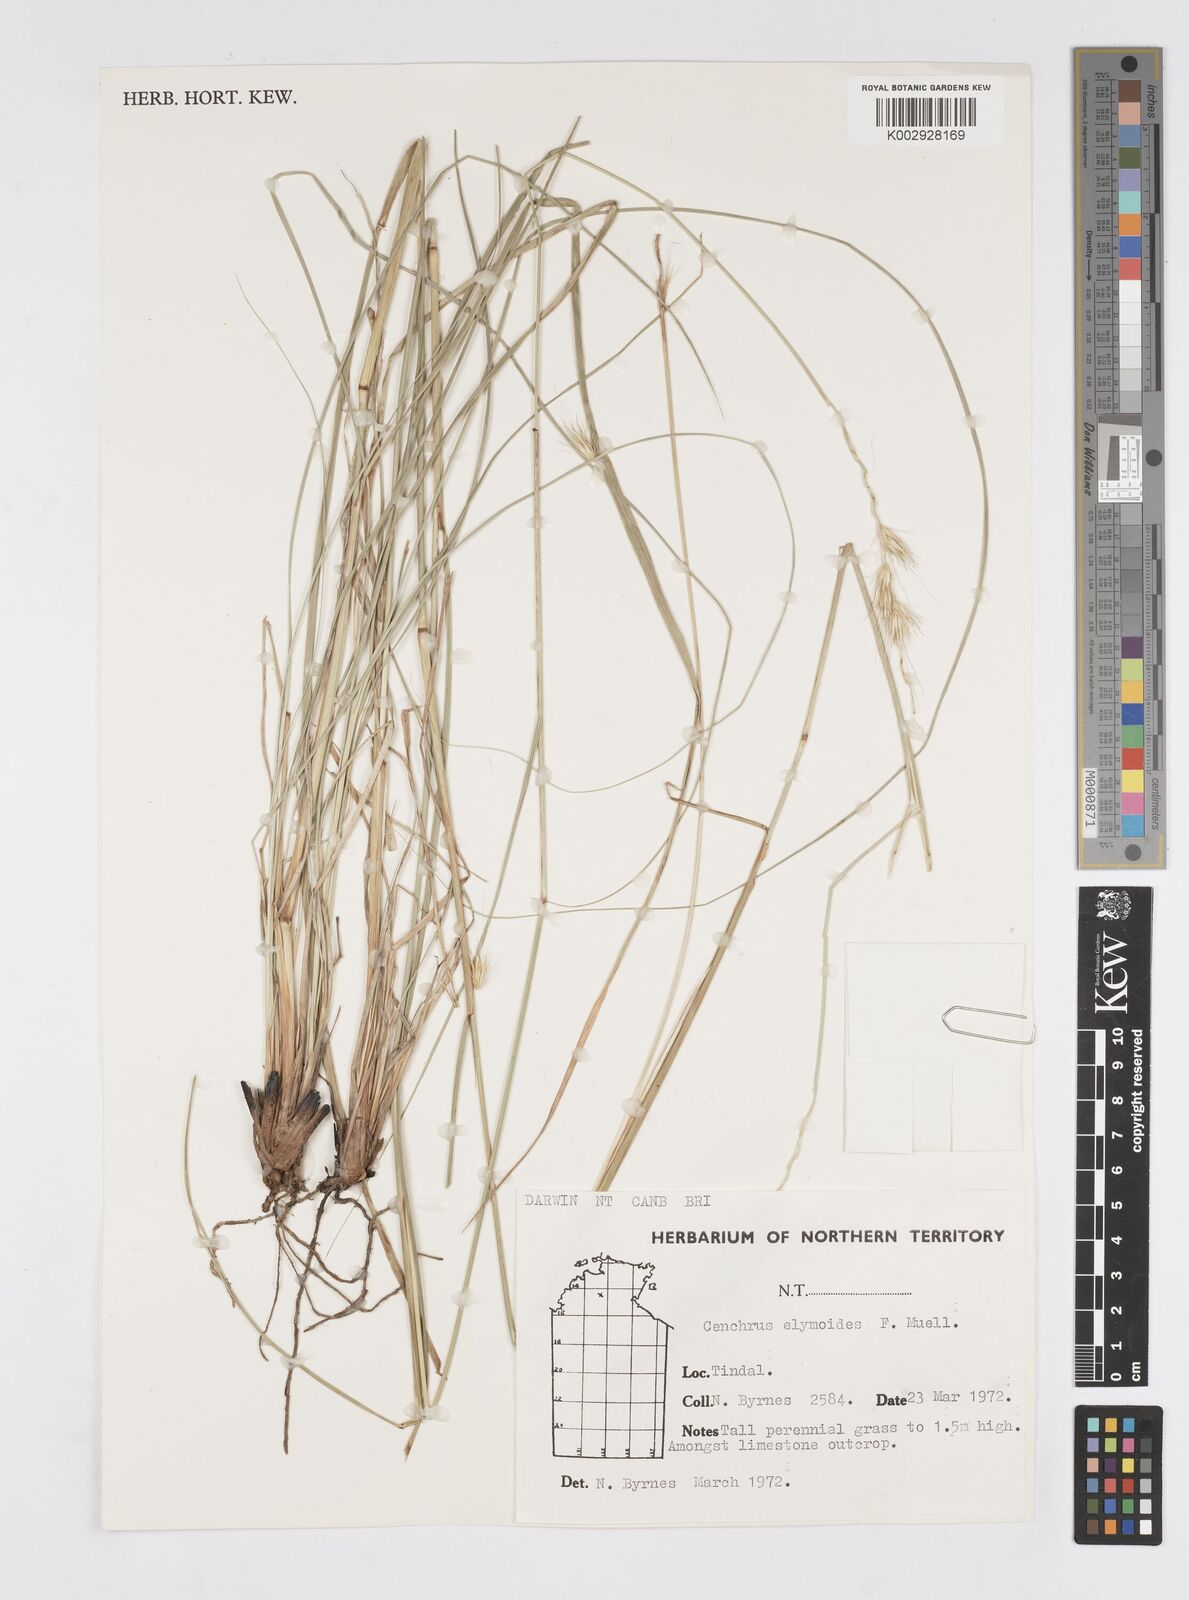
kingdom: Plantae
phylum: Tracheophyta
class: Liliopsida
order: Poales
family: Poaceae
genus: Cenchrus
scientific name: Cenchrus elymoides
